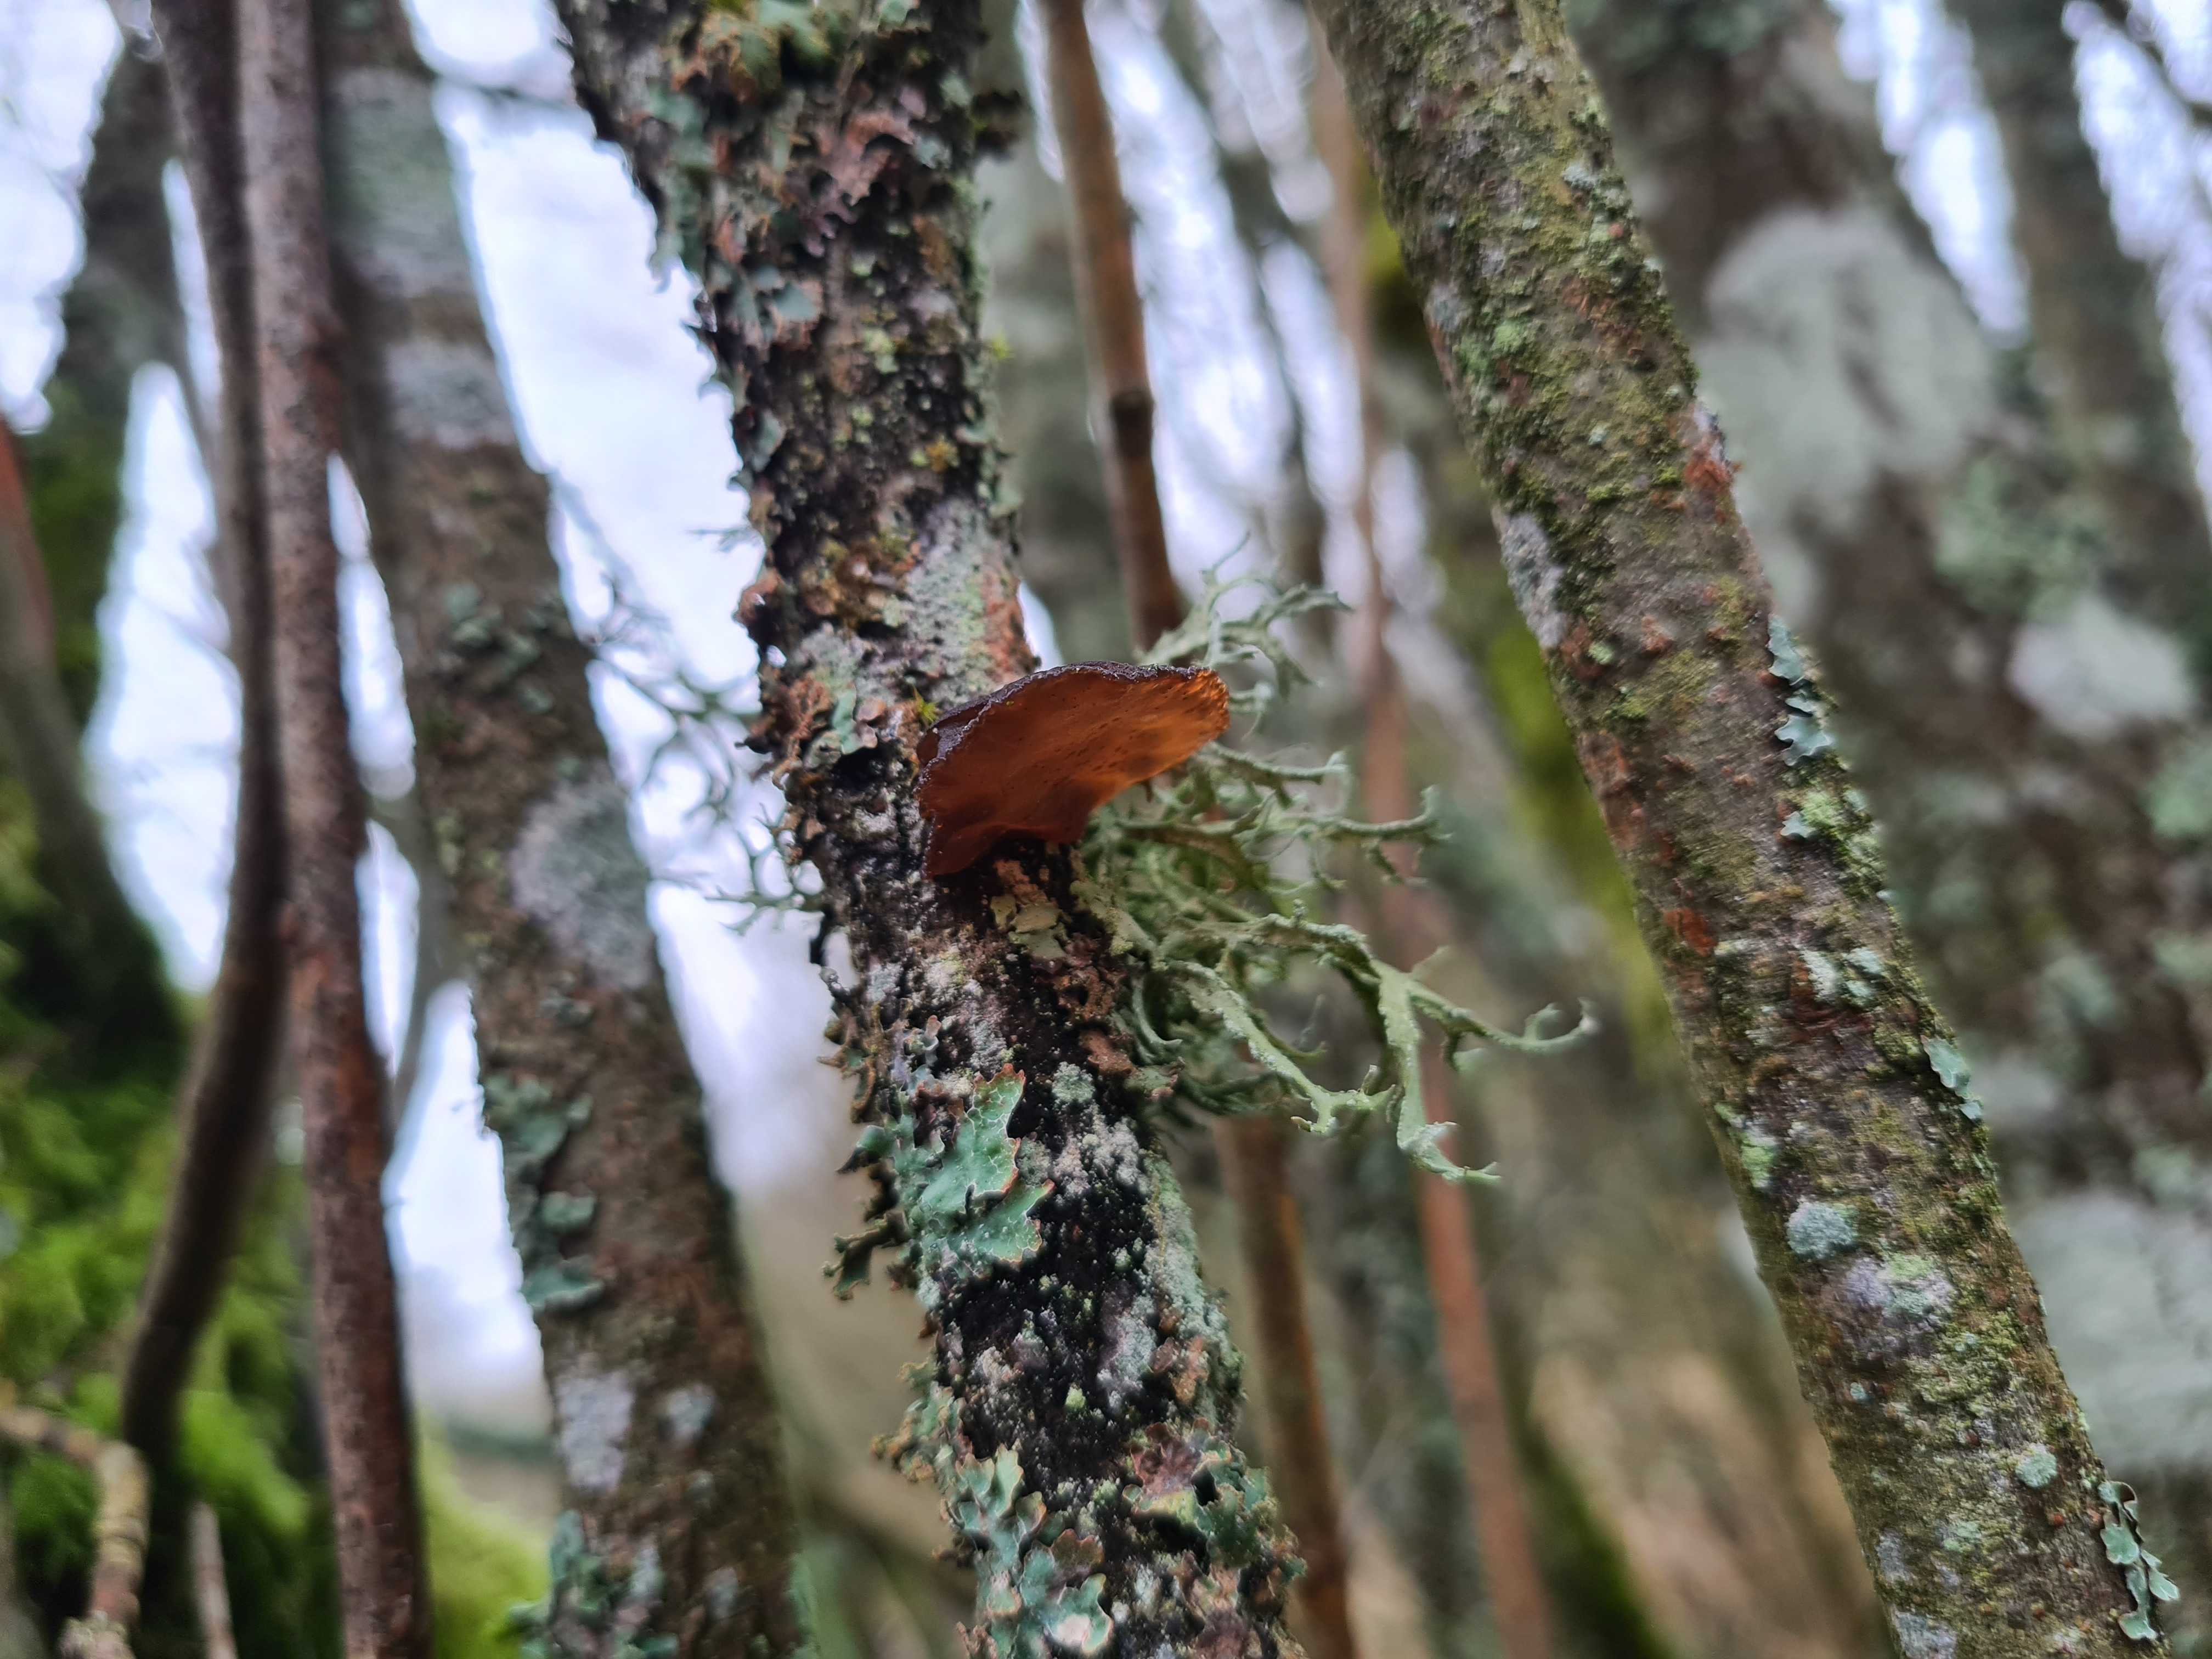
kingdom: Fungi
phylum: Basidiomycota
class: Agaricomycetes
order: Auriculariales
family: Auriculariaceae
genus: Exidia
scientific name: Exidia recisa
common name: pile-bævretop
